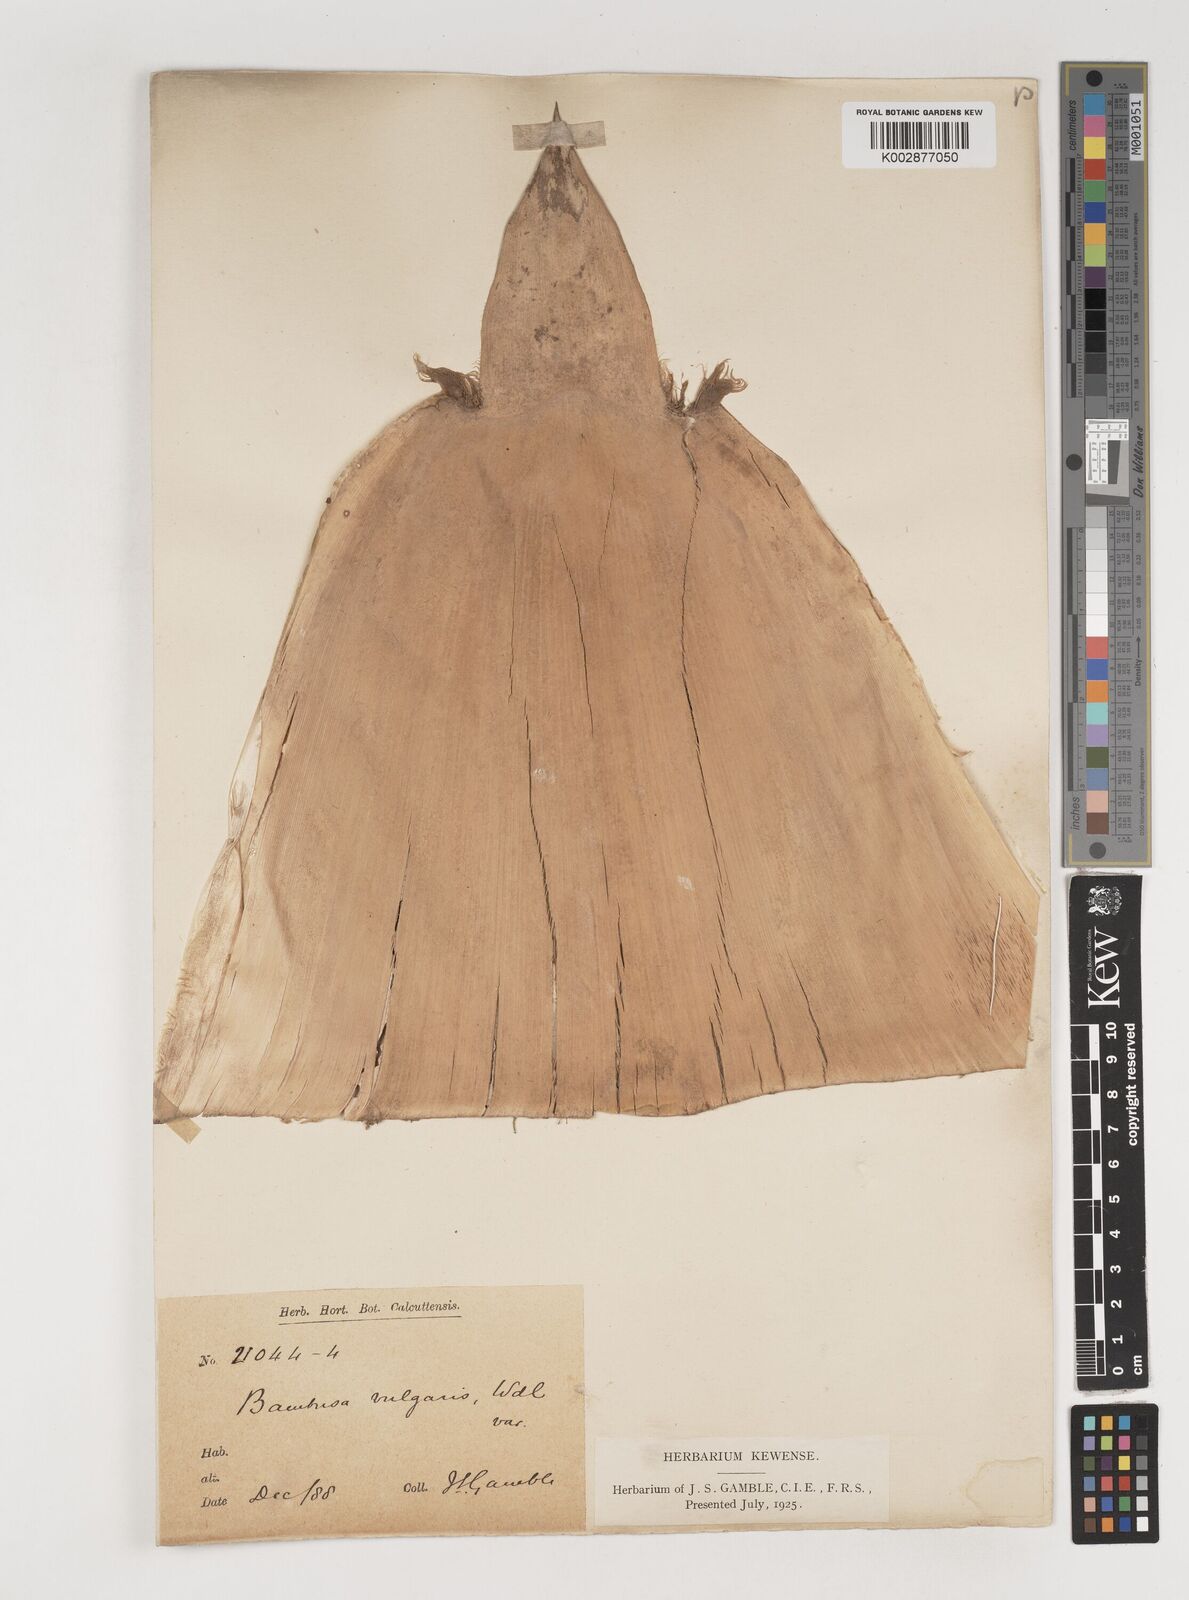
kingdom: Plantae
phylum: Tracheophyta
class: Liliopsida
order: Poales
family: Poaceae
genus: Bambusa
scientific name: Bambusa vulgaris
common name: Common bamboo
